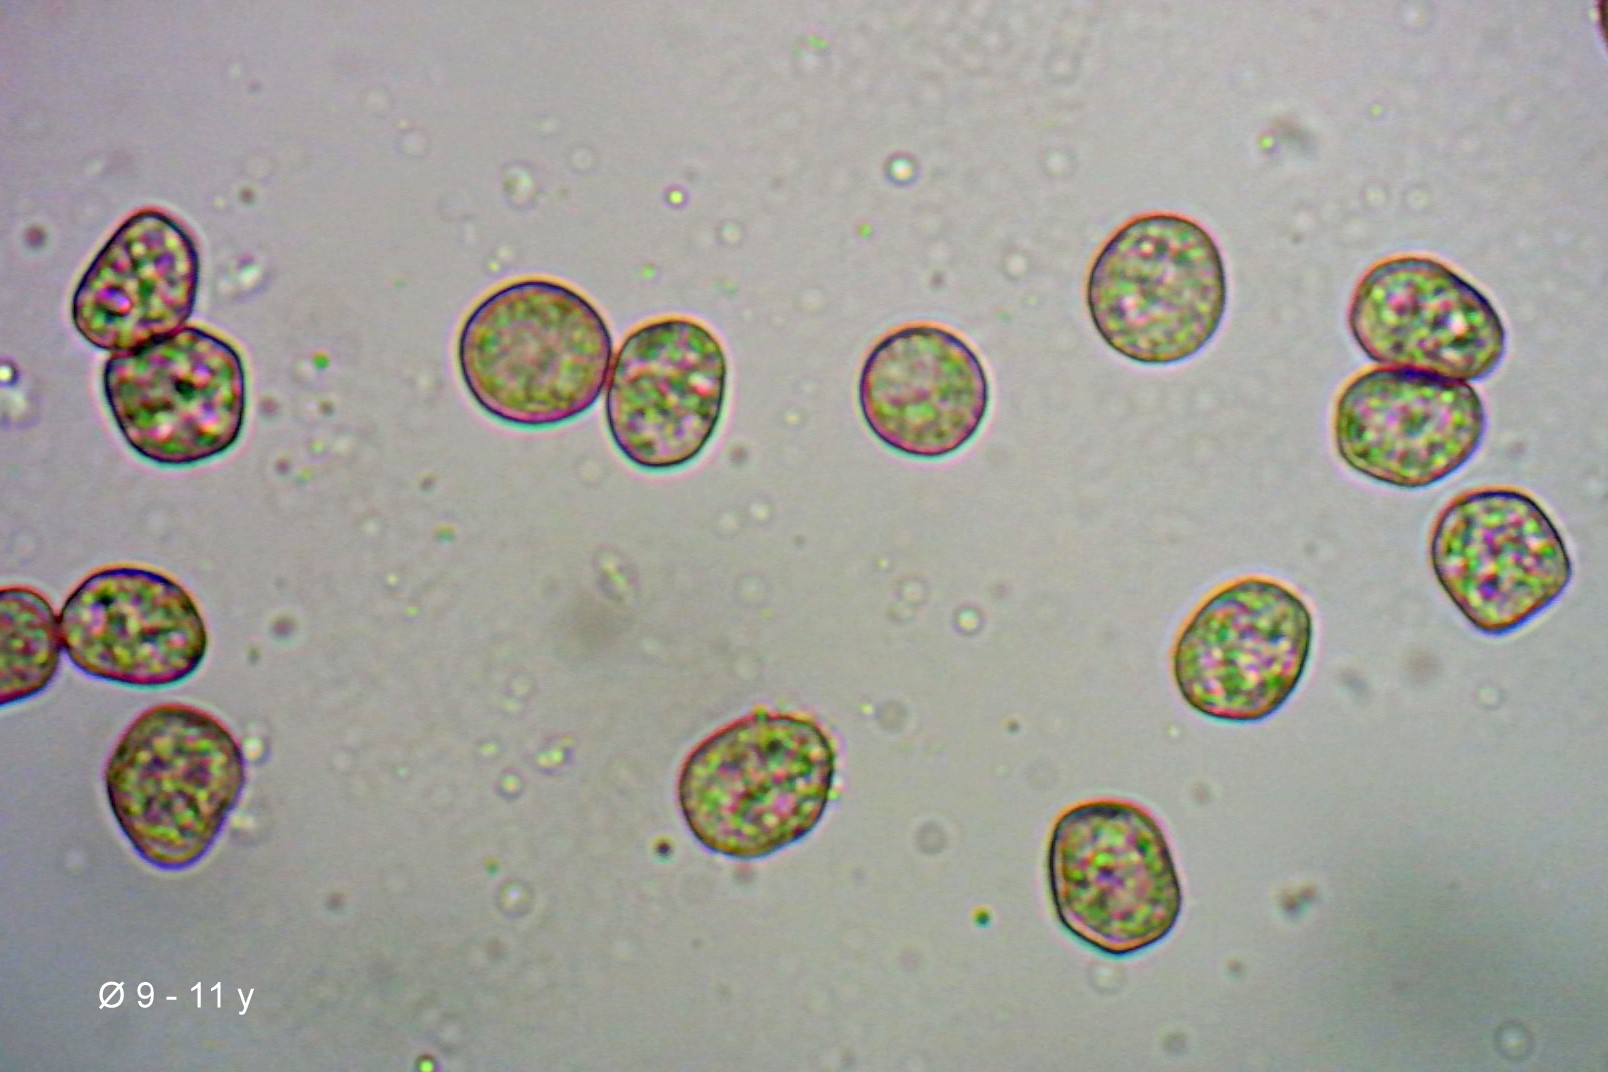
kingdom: Protozoa
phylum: Mycetozoa
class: Myxomycetes
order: Stemonitidales
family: Stemonitidaceae
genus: Enerthenema
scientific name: Enerthenema papillatum
